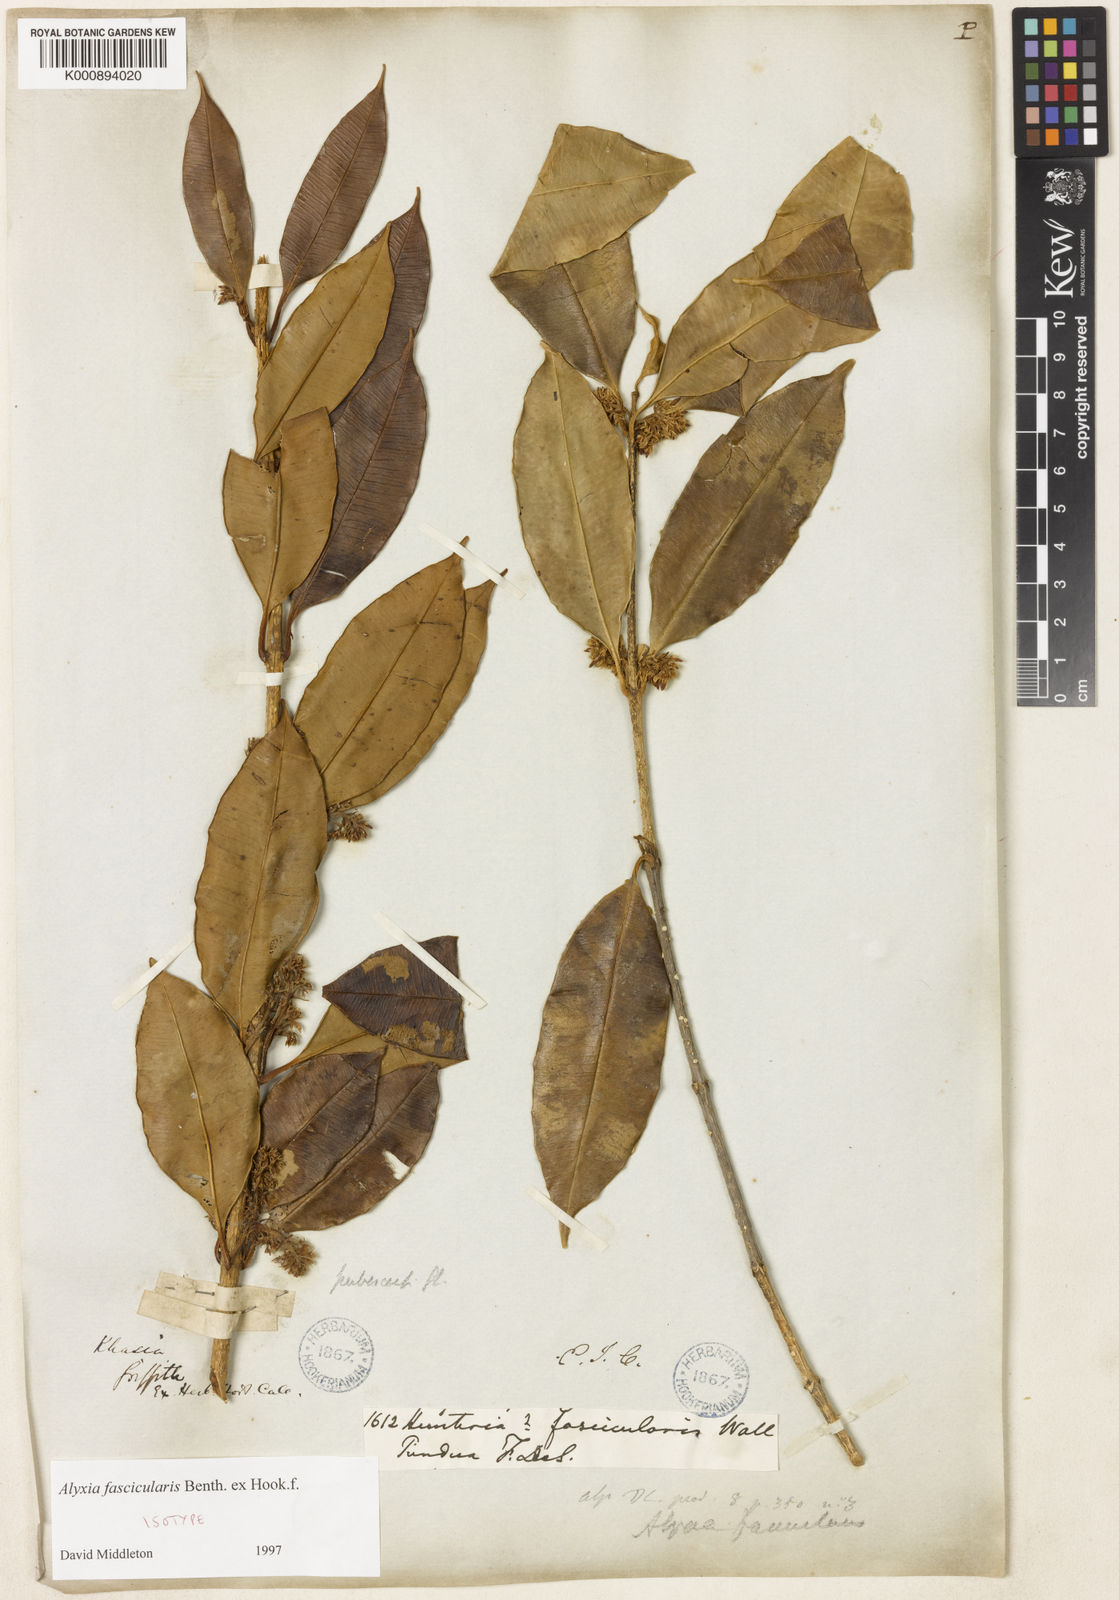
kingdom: Plantae
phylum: Tracheophyta
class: Magnoliopsida
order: Gentianales
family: Apocynaceae
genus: Alyxia
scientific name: Alyxia fascicularis
